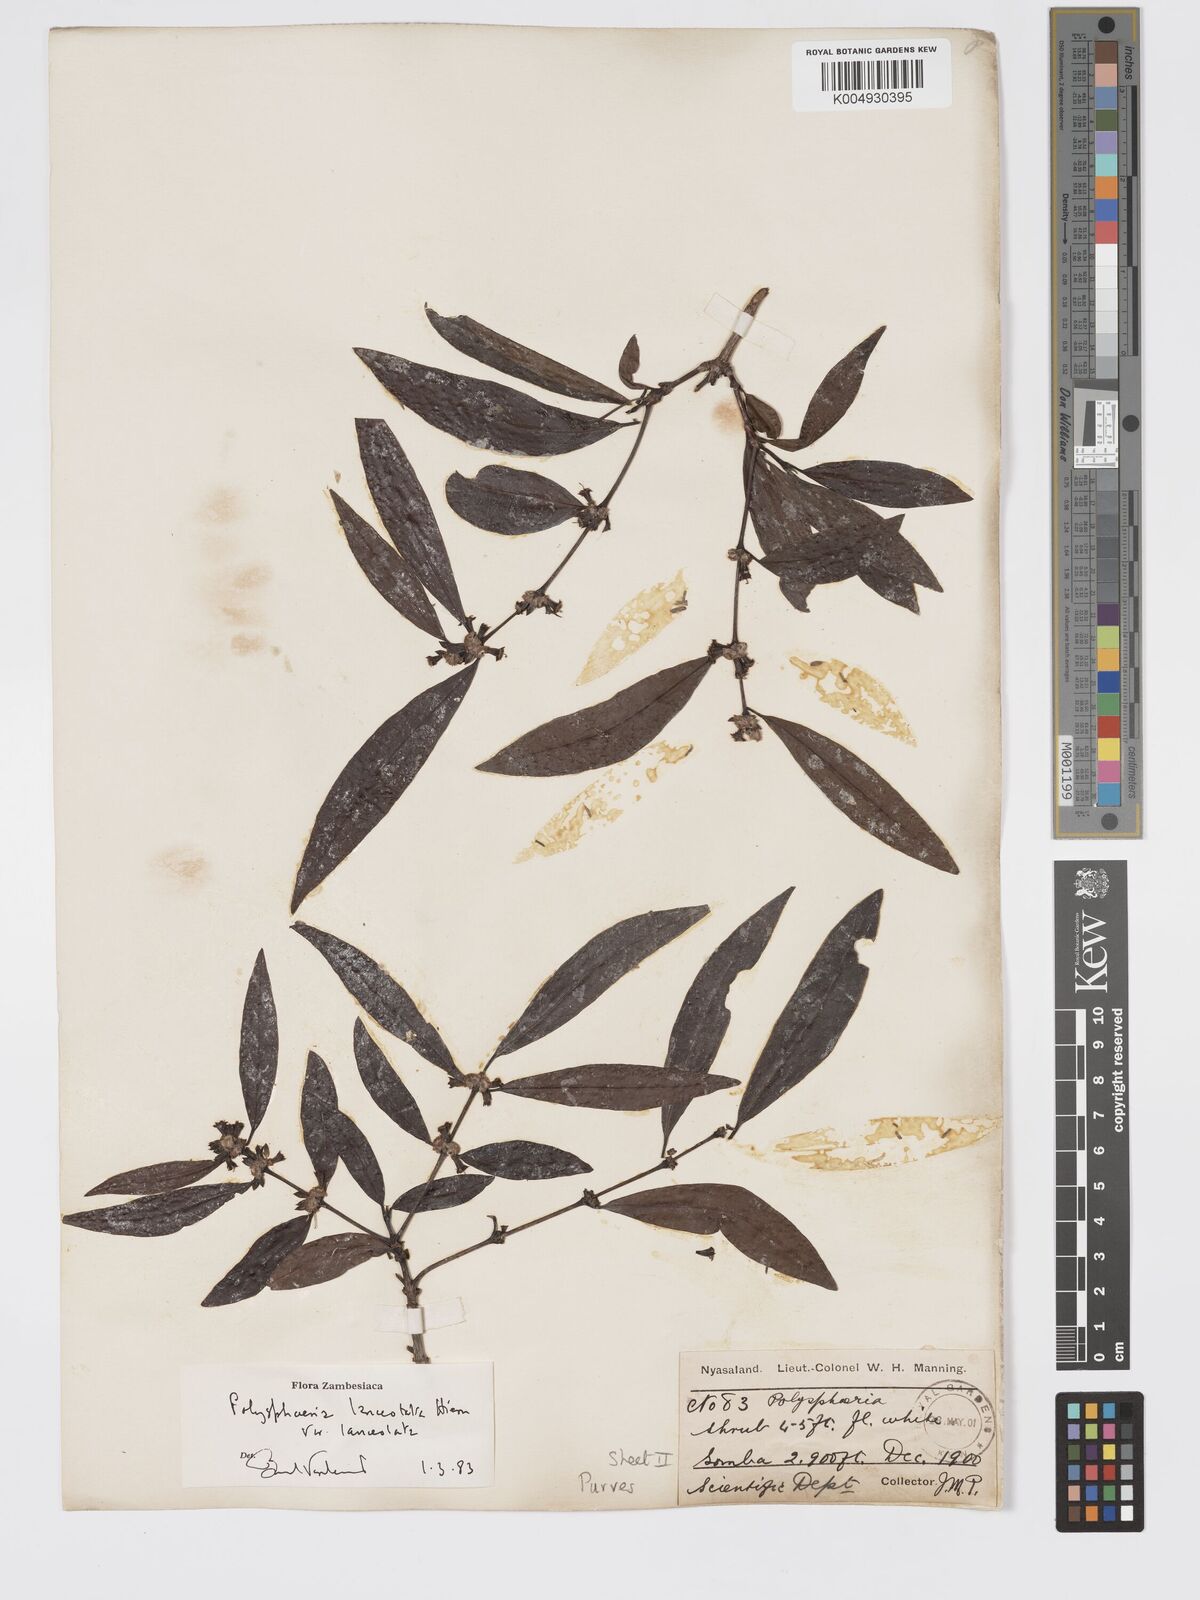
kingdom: Plantae
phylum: Tracheophyta
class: Magnoliopsida
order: Gentianales
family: Rubiaceae
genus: Polysphaeria
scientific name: Polysphaeria lanceolata
